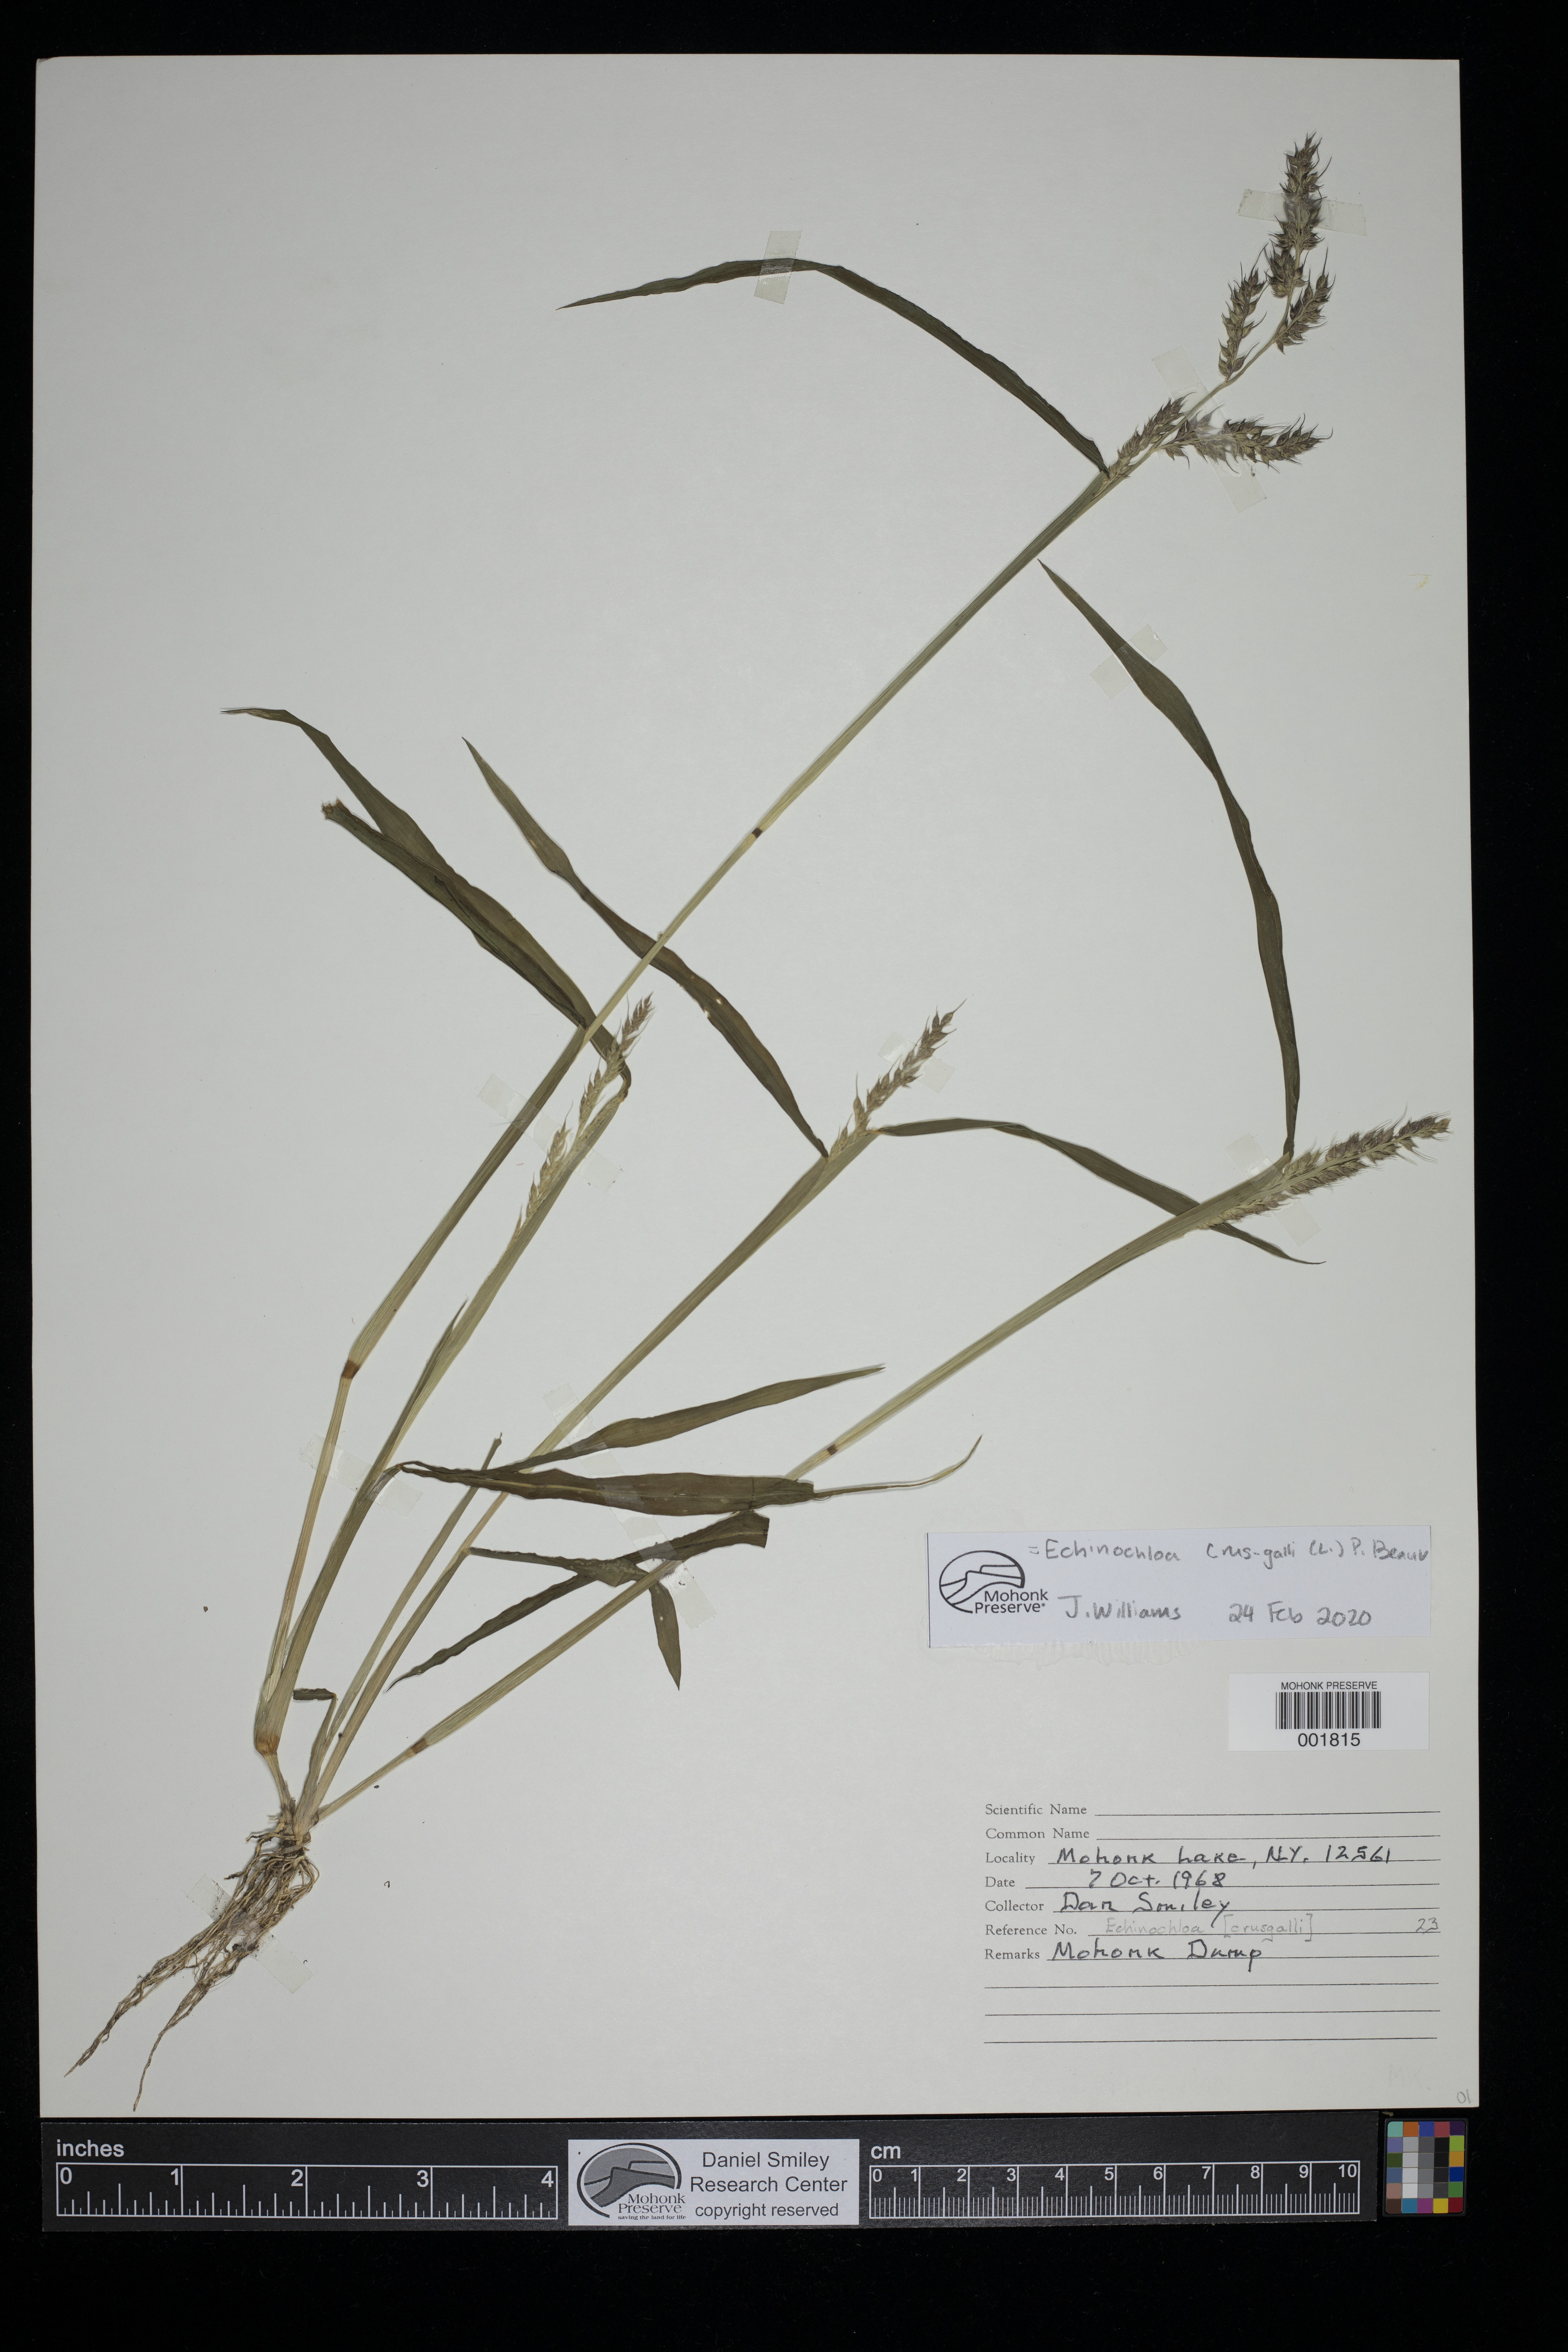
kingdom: Plantae
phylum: Tracheophyta
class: Liliopsida
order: Poales
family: Poaceae
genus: Echinochloa
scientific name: Echinochloa crus-galli
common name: Cockspur
